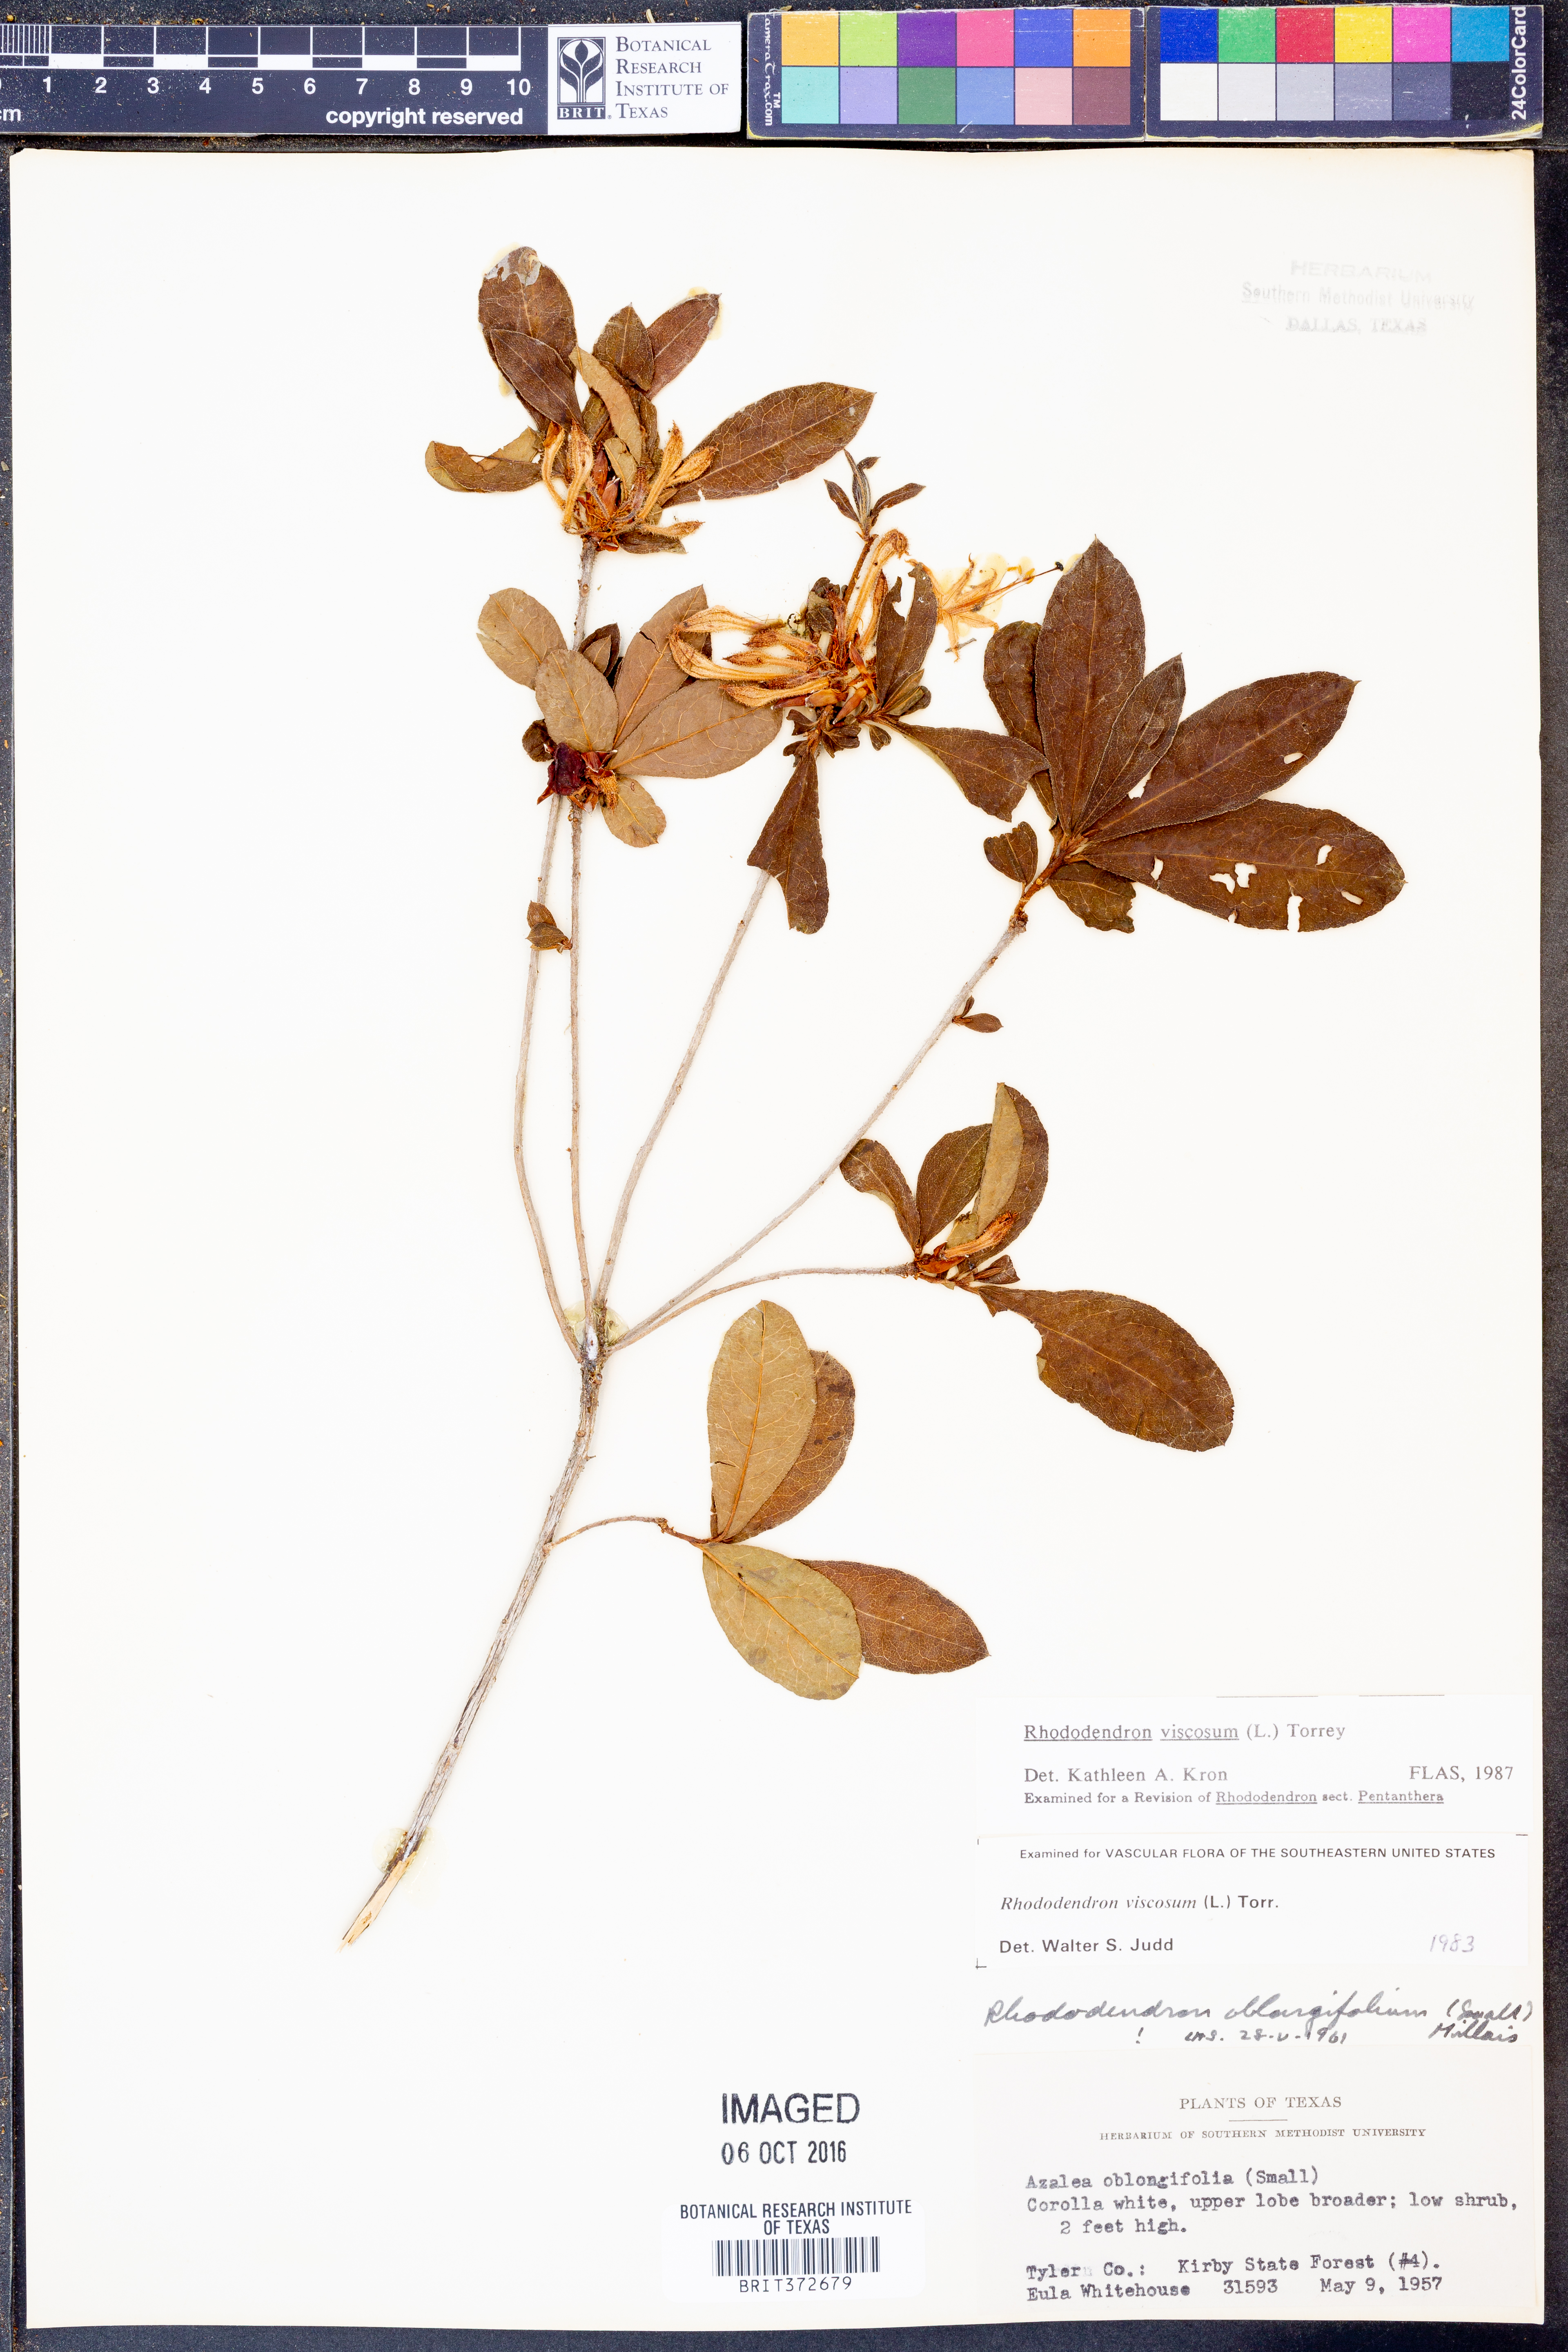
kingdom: Plantae
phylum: Tracheophyta
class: Magnoliopsida
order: Ericales
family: Ericaceae
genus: Rhododendron
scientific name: Rhododendron viscosum
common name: Clammy azalea
